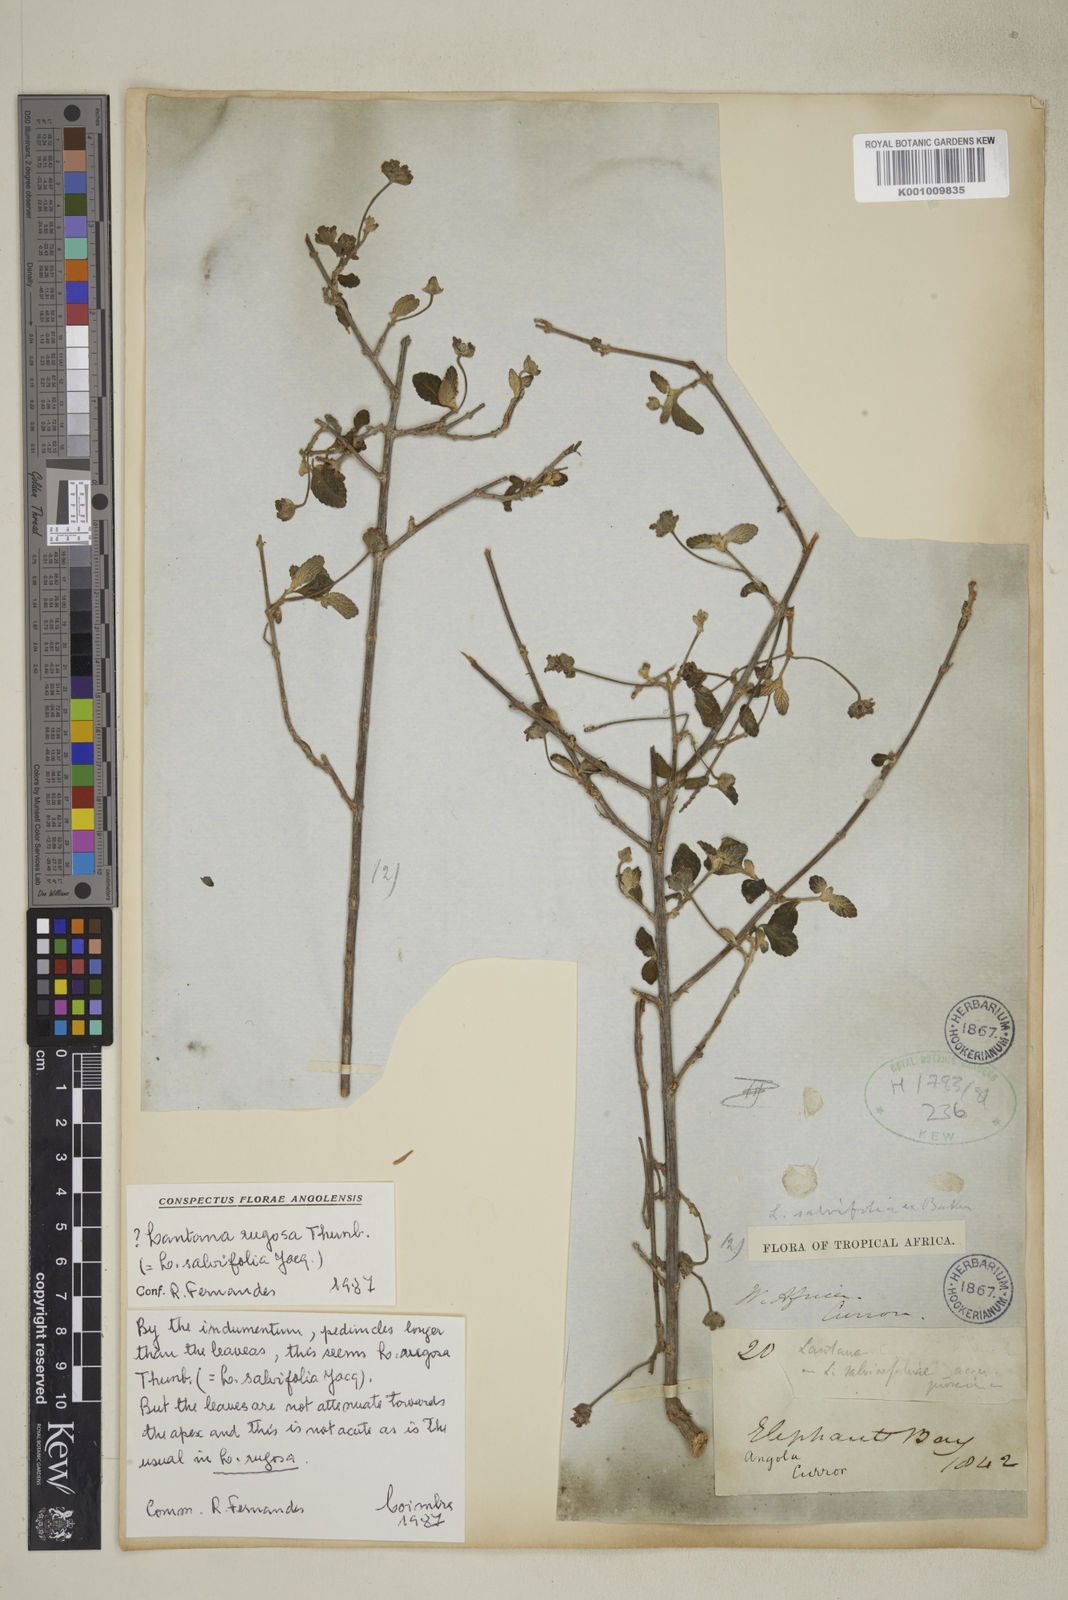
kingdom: Plantae
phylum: Tracheophyta
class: Magnoliopsida
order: Lamiales
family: Verbenaceae
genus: Lantana
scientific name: Lantana
